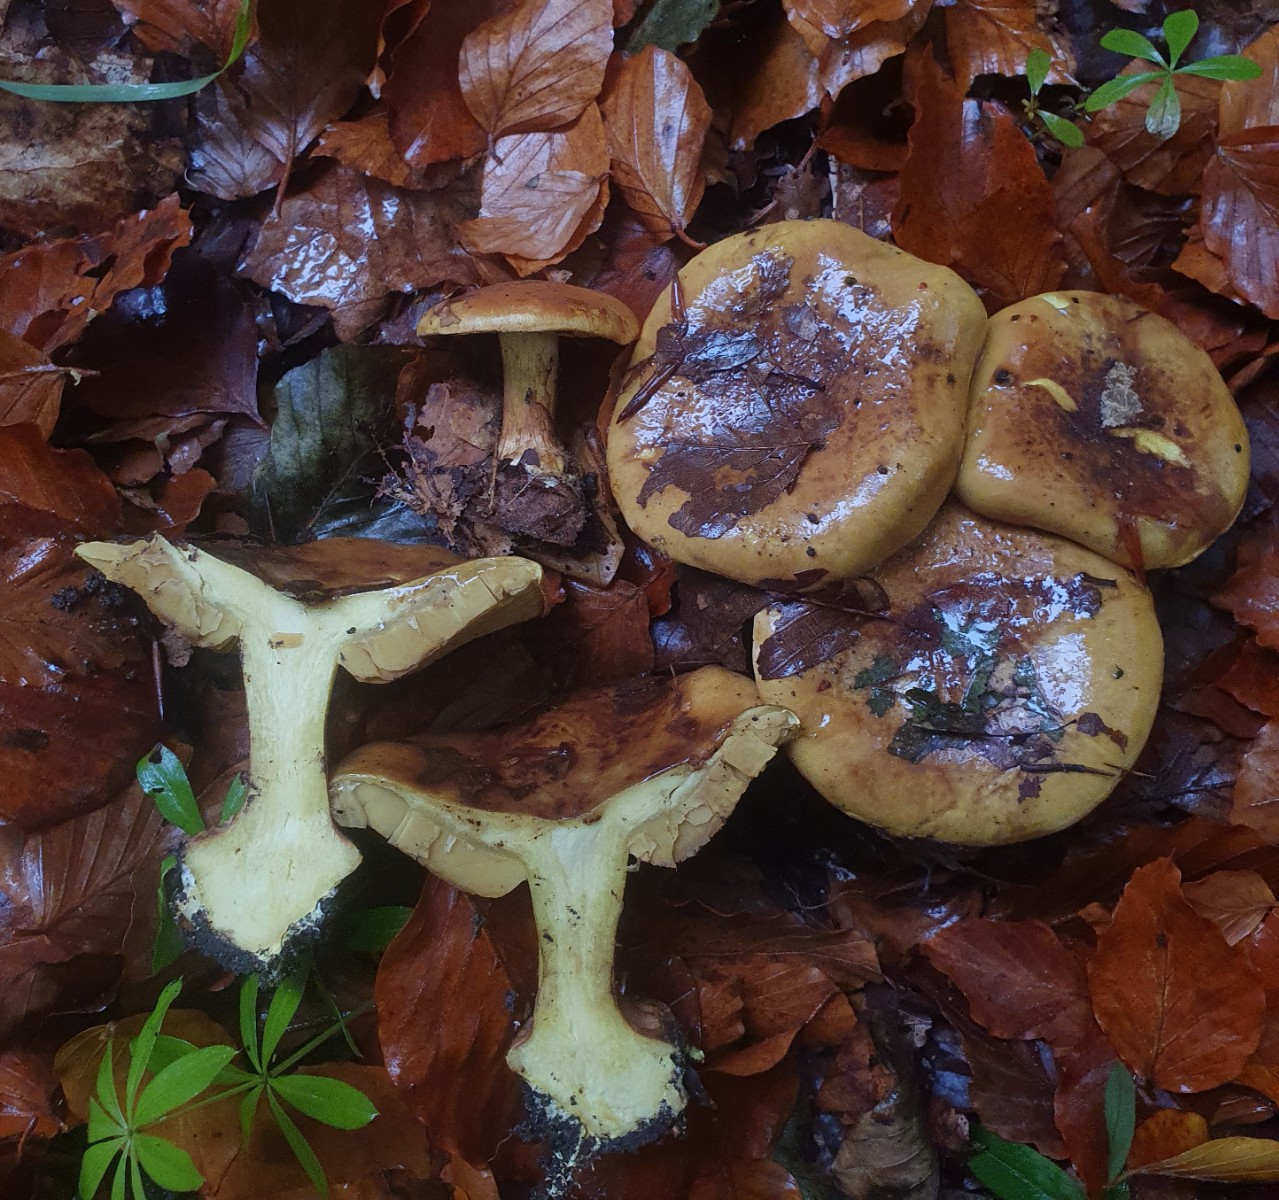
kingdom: Fungi
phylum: Basidiomycota
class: Agaricomycetes
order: Agaricales
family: Cortinariaceae
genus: Calonarius
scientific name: Calonarius citrinus
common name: citrongul slørhat
